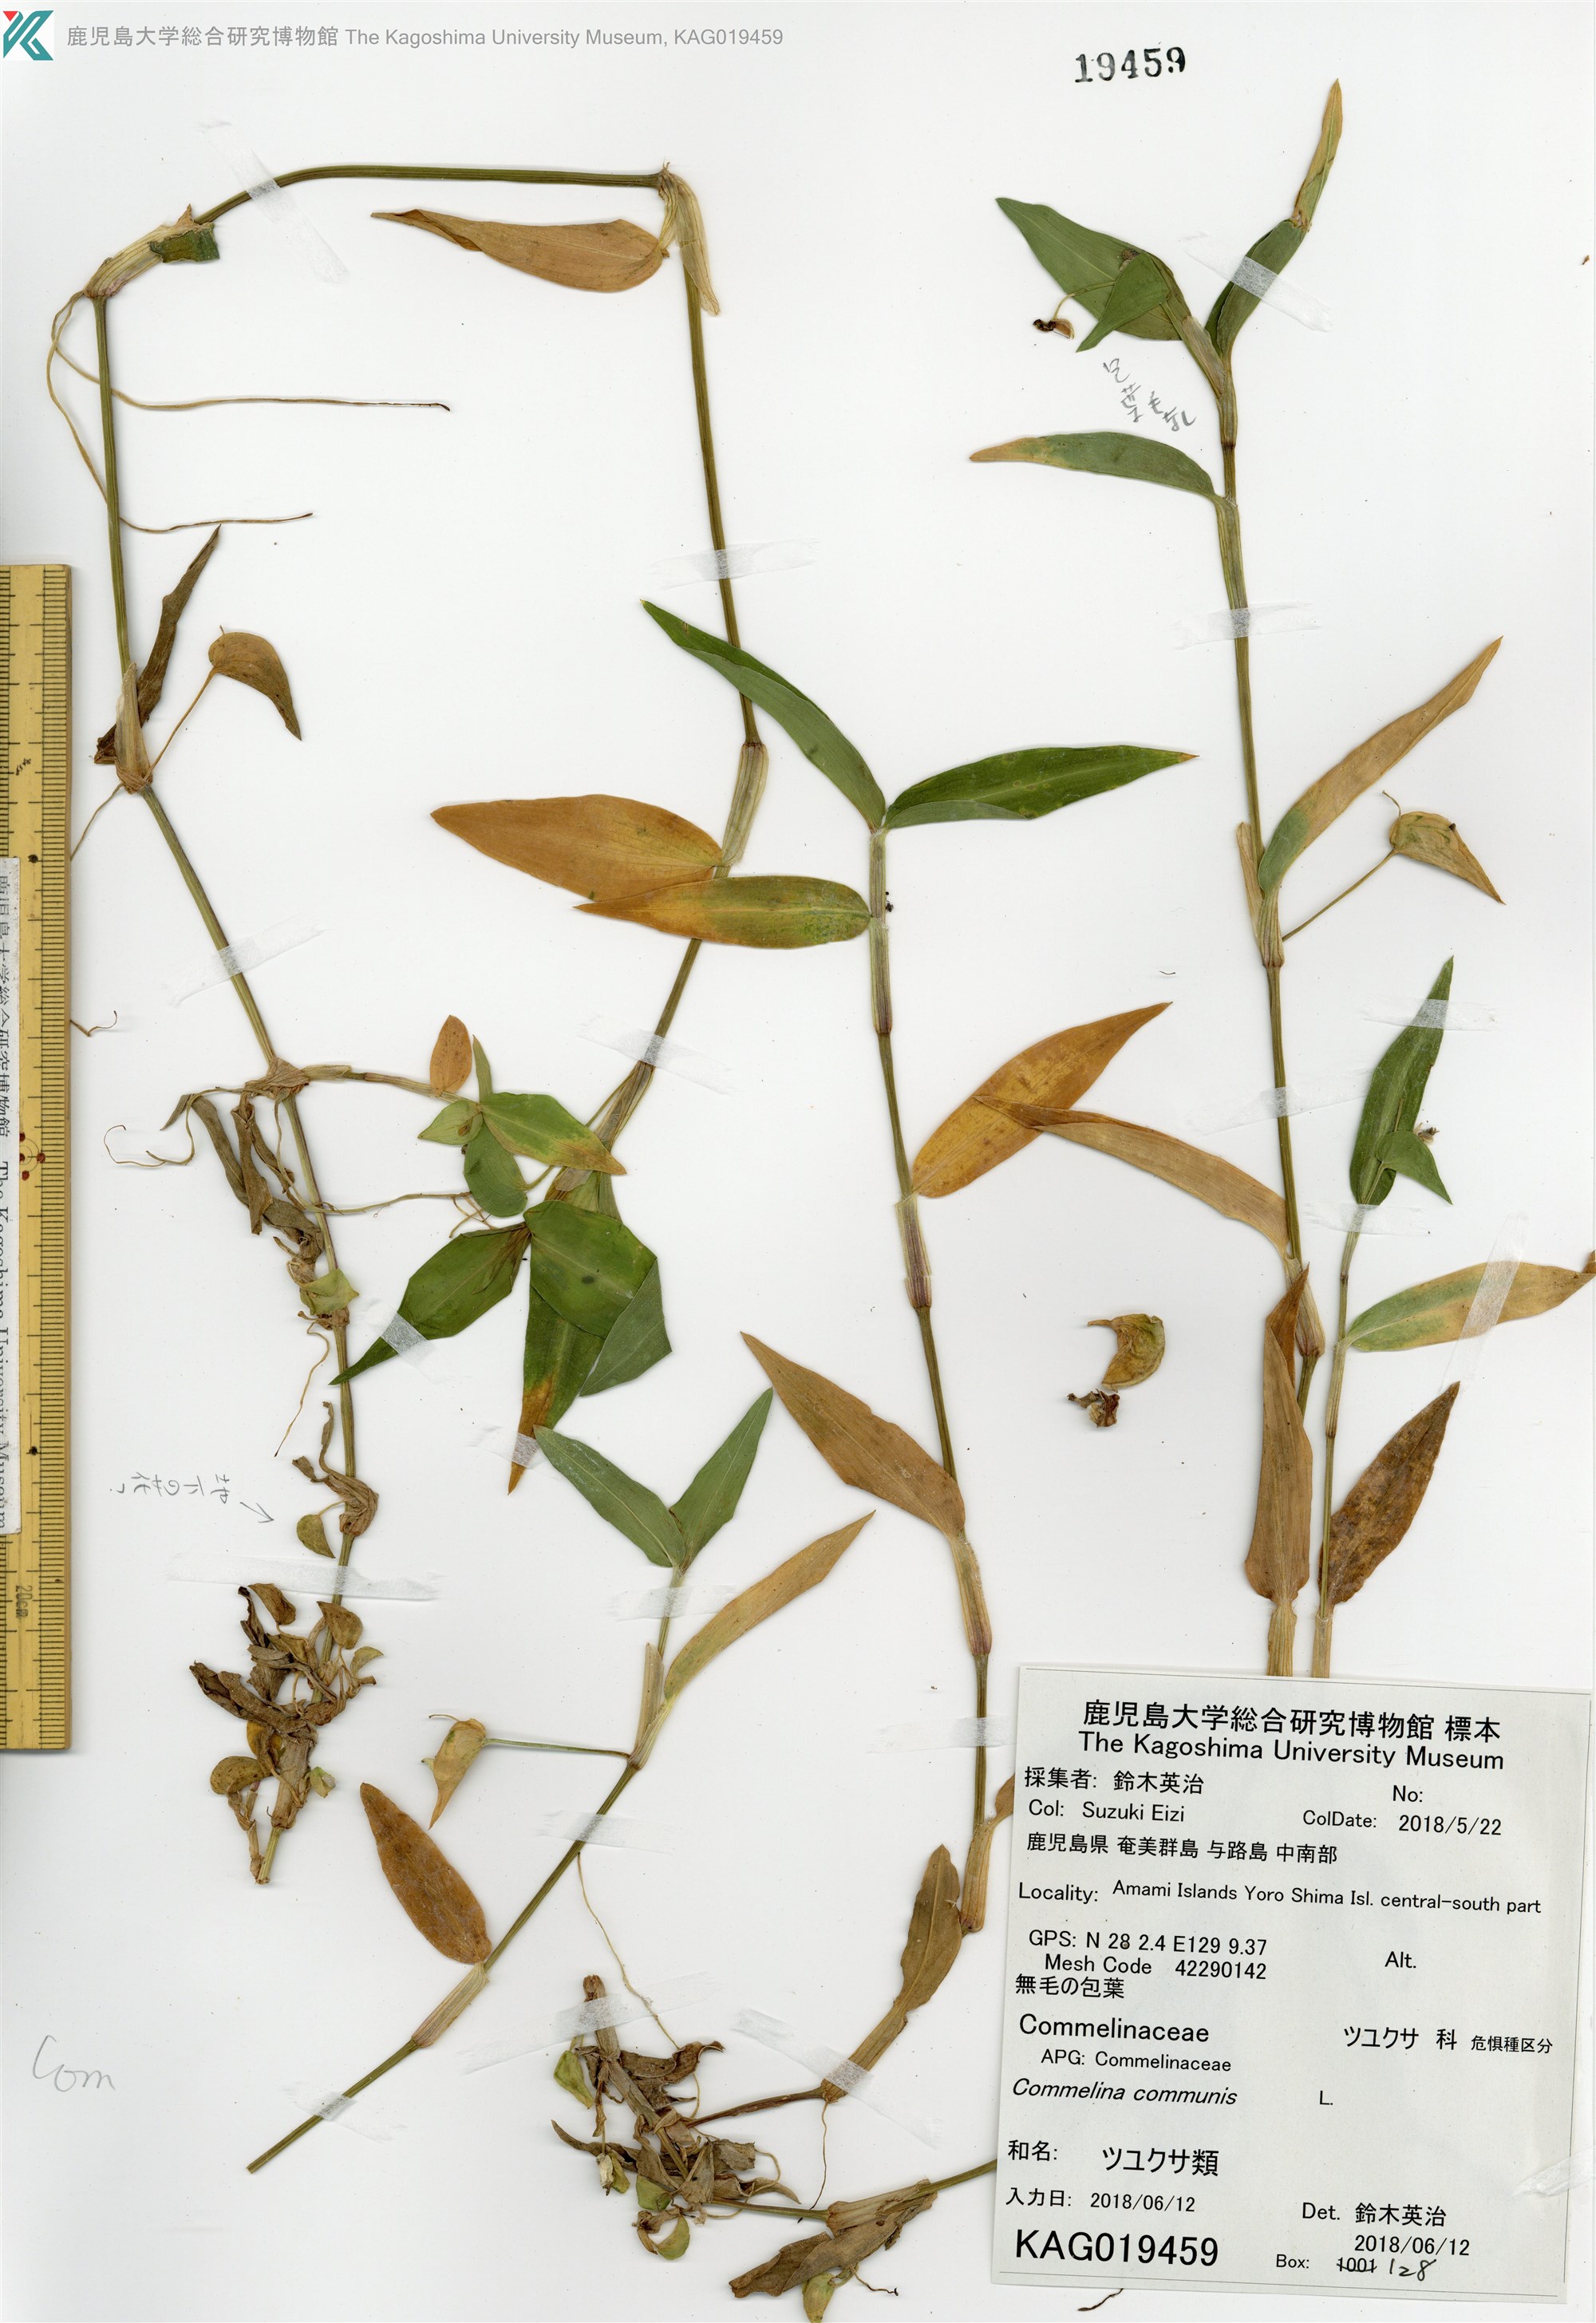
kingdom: Plantae
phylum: Tracheophyta
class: Liliopsida
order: Commelinales
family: Commelinaceae
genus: Commelina
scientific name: Commelina diffusa
